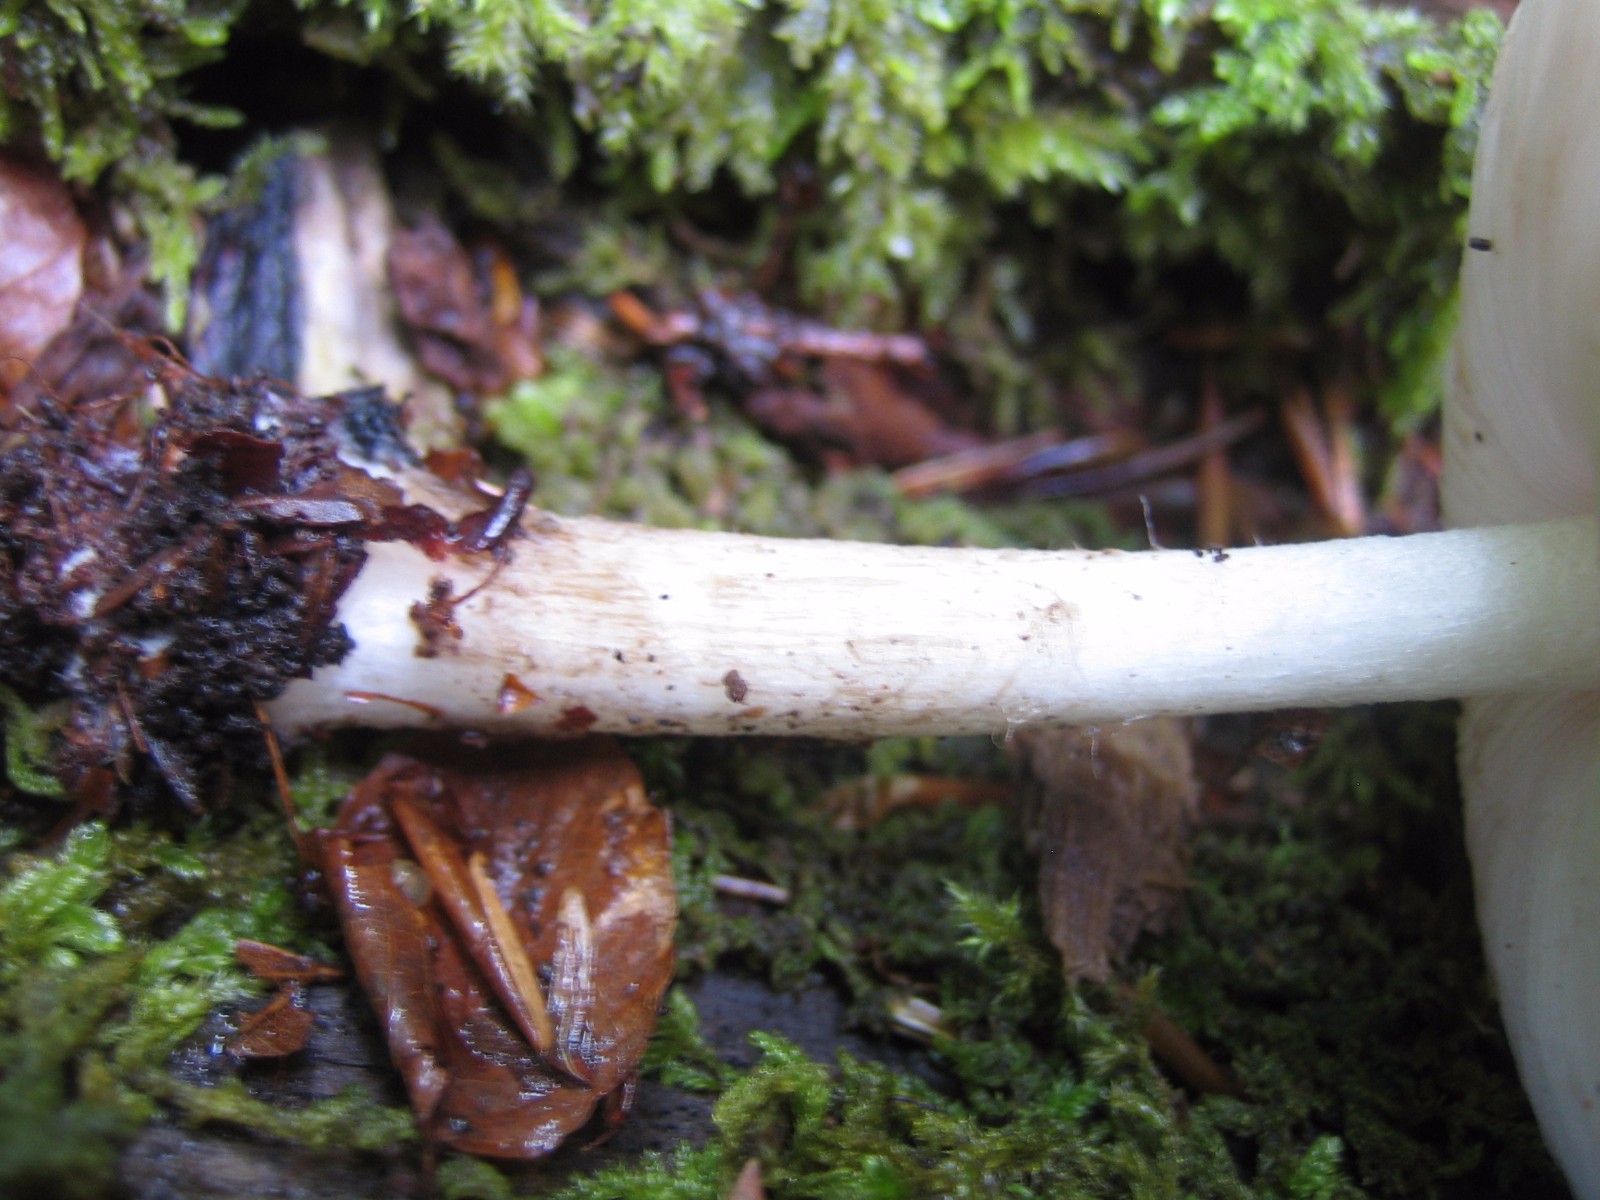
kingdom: Fungi
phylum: Basidiomycota
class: Agaricomycetes
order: Agaricales
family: Pluteaceae
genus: Pluteus
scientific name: Pluteus cervinus
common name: sodfarvet skærmhat
